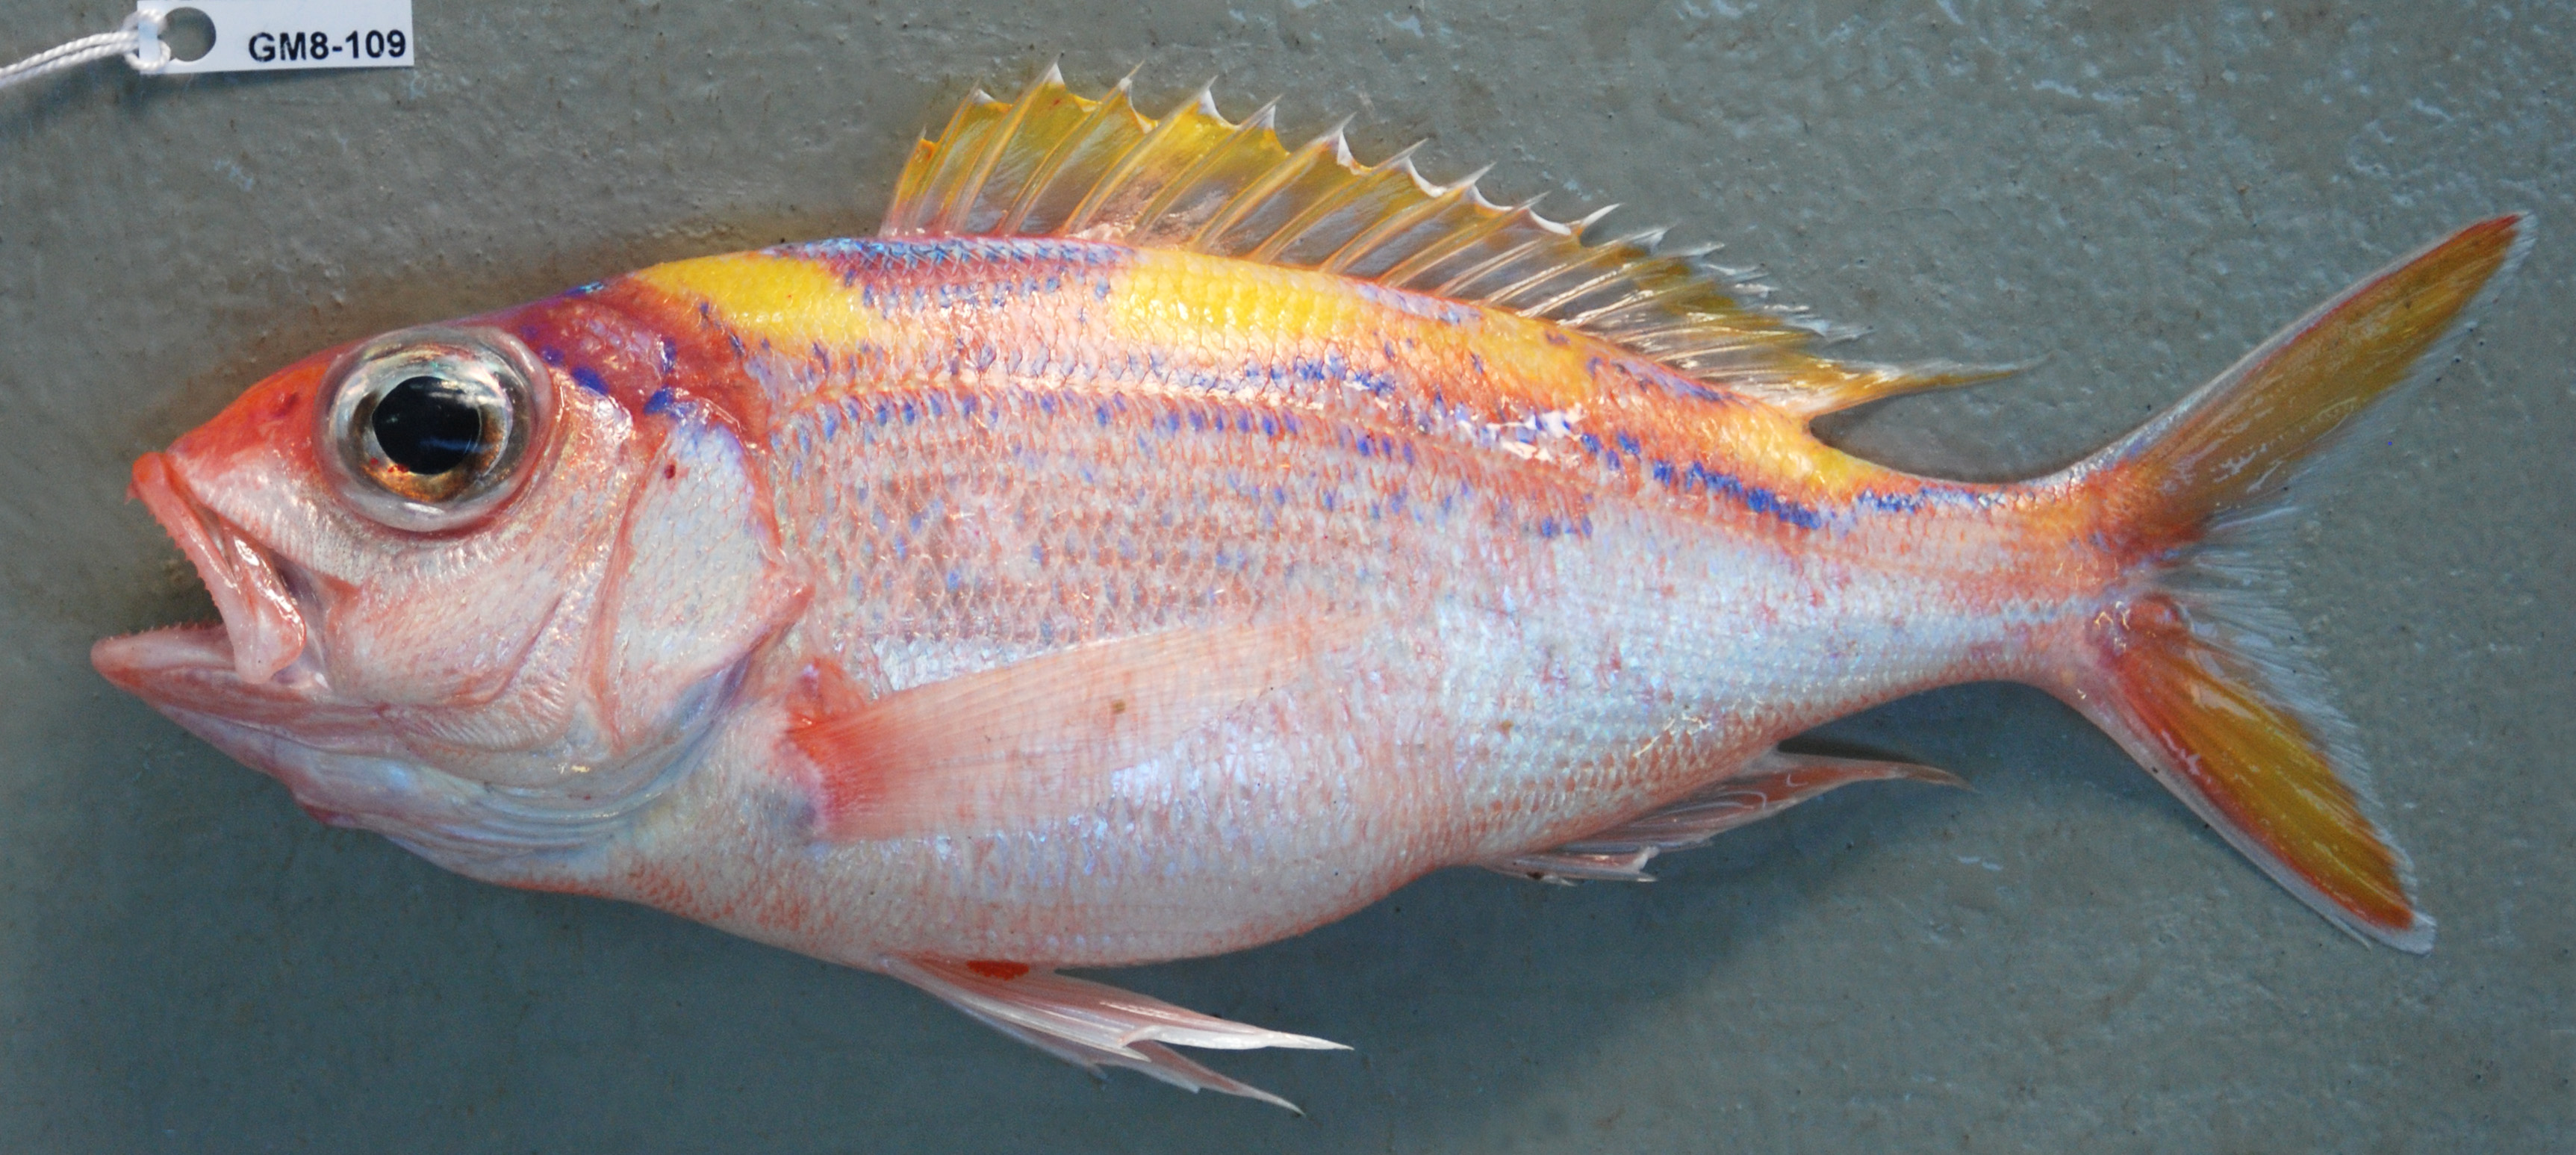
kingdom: Animalia
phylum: Chordata
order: Perciformes
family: Lutjanidae
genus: Pristipomoides
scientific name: Pristipomoides argyrogrammicus
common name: Big-eyed snapper
